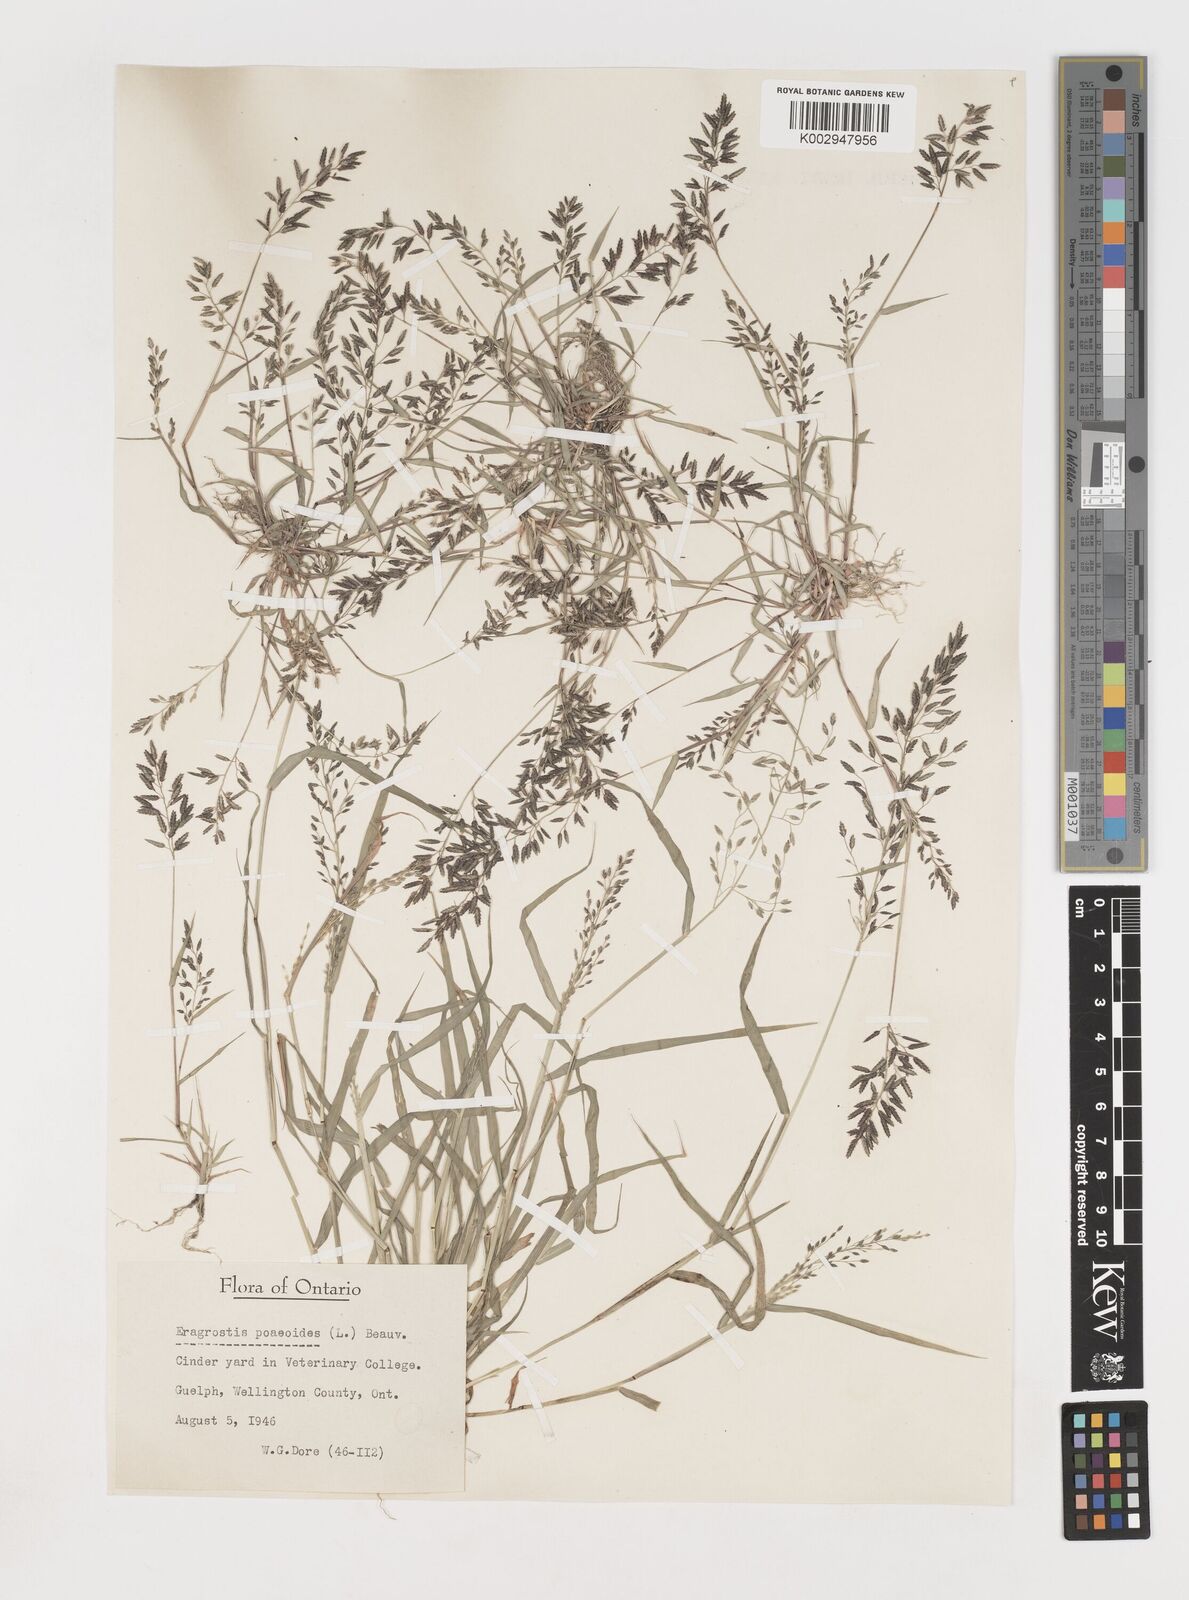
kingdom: Plantae
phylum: Tracheophyta
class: Liliopsida
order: Poales
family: Poaceae
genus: Eragrostis
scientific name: Eragrostis minor
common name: Small love-grass
